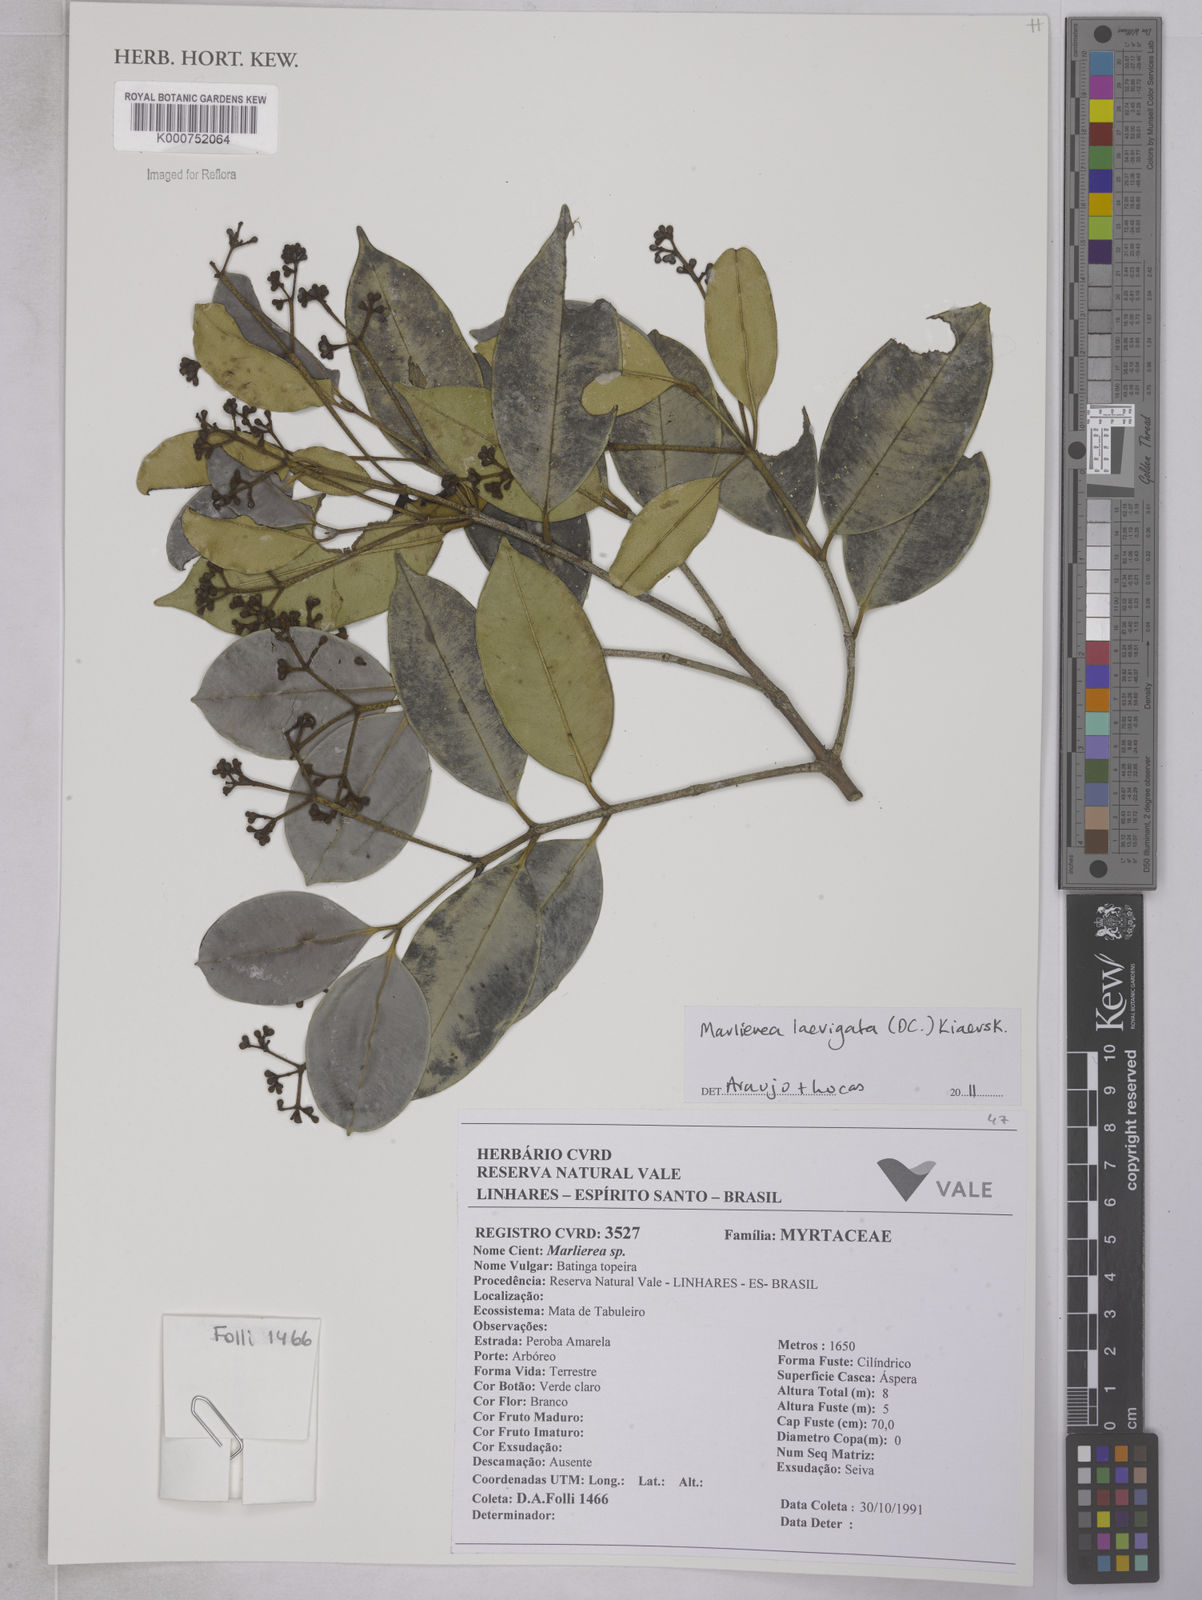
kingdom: Plantae
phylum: Tracheophyta
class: Magnoliopsida
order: Myrtales
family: Myrtaceae
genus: Myrcia
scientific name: Myrcia multipunctata
